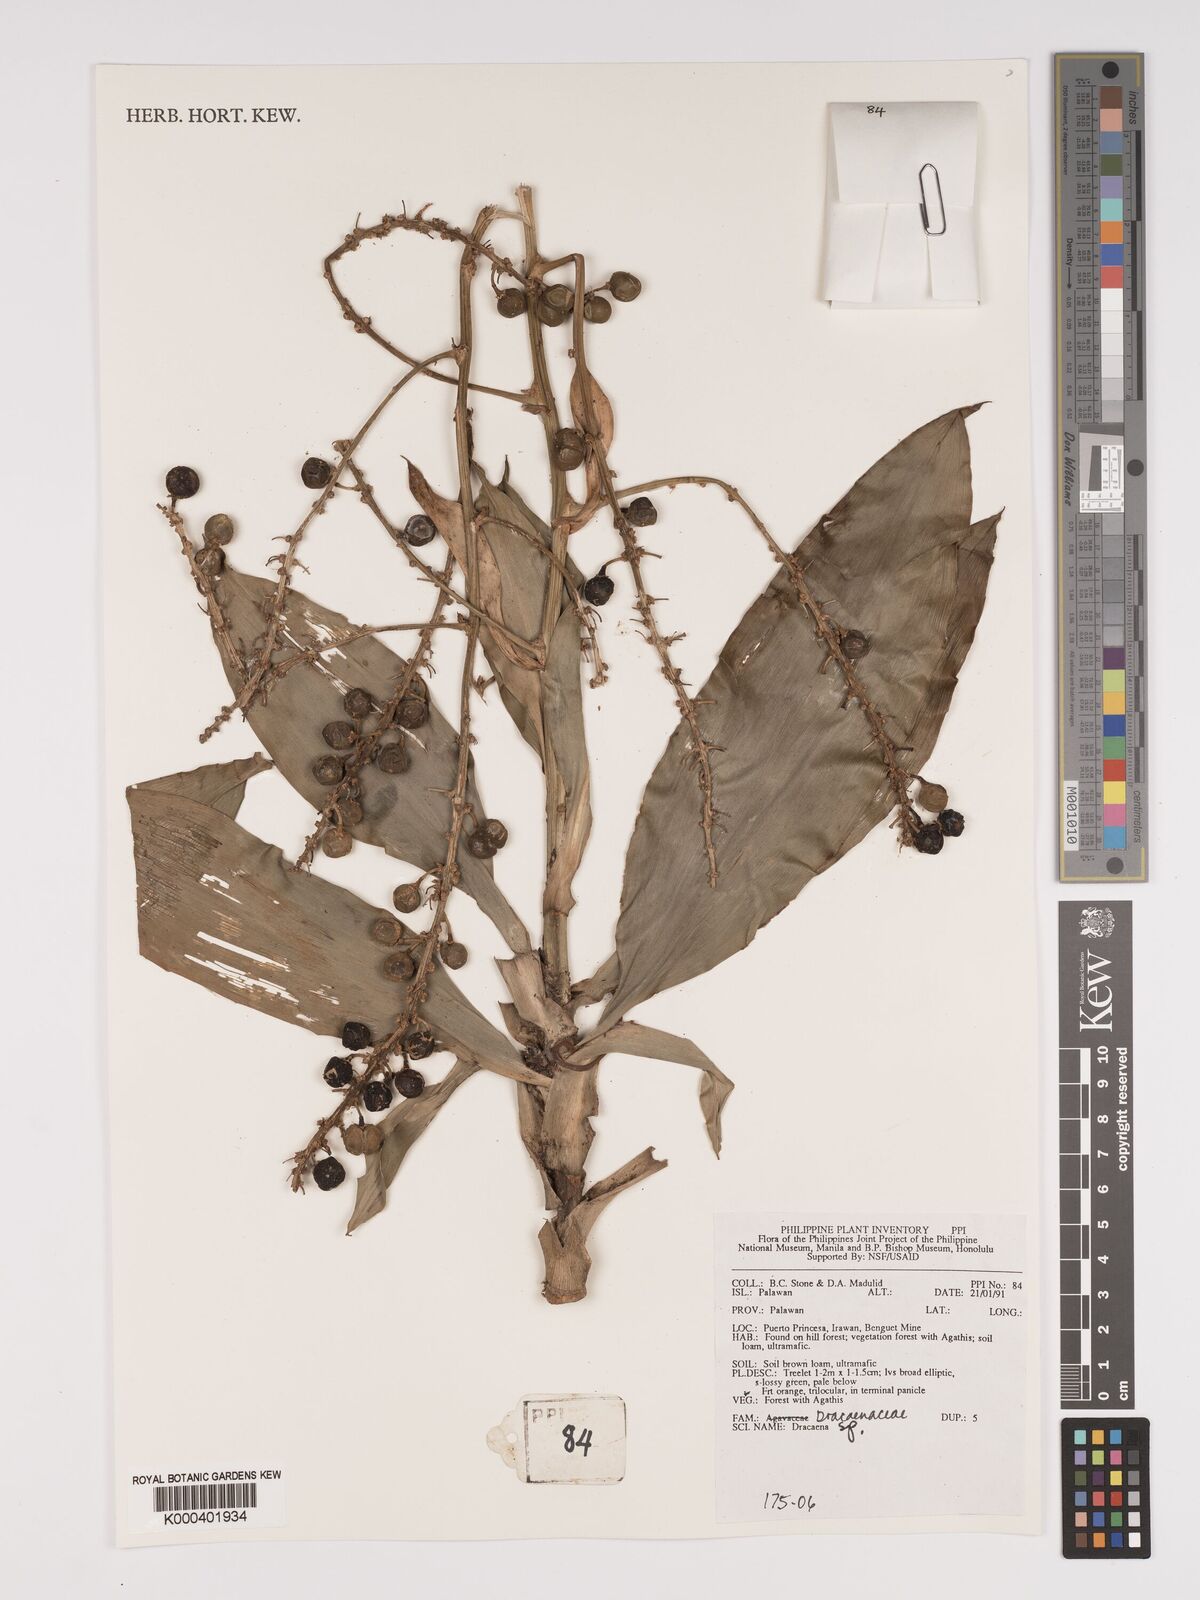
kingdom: Plantae
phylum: Tracheophyta
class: Liliopsida
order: Asparagales
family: Asparagaceae
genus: Dracaena
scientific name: Dracaena
